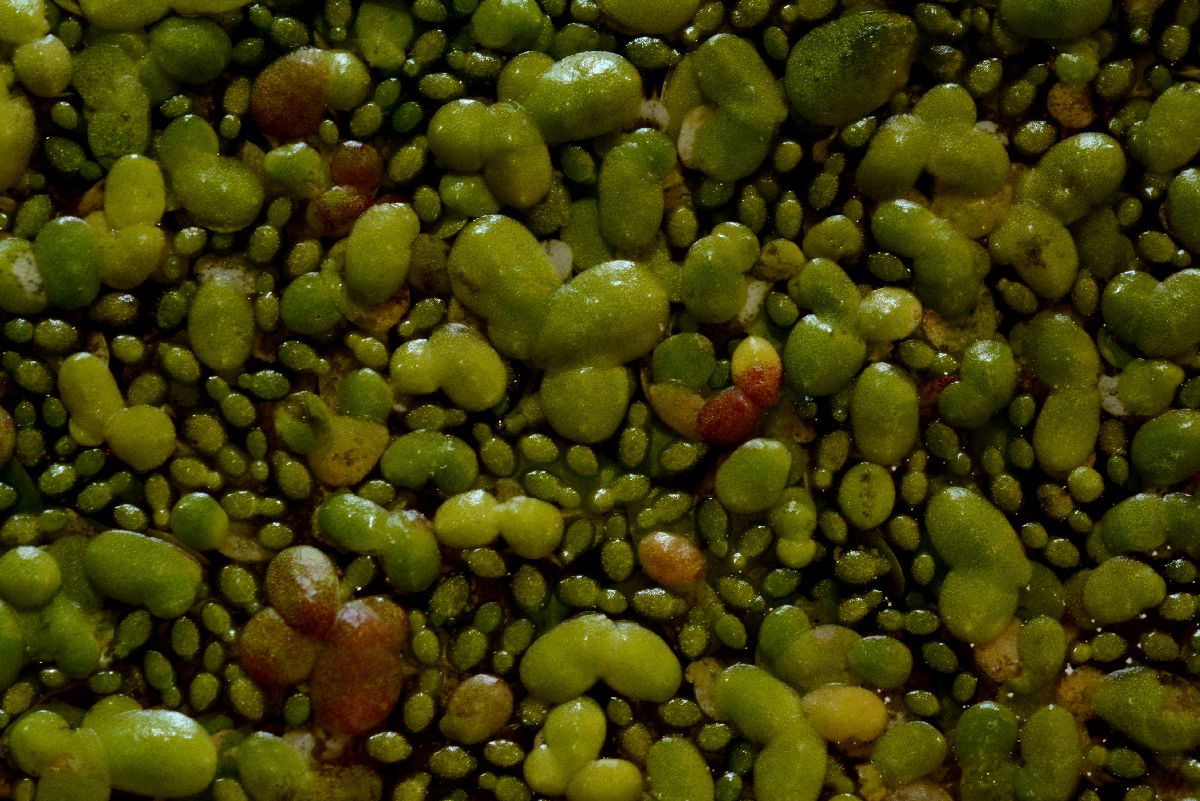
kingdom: Plantae
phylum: Tracheophyta
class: Liliopsida
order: Alismatales
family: Araceae
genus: Wolffia
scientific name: Wolffia arrhiza
